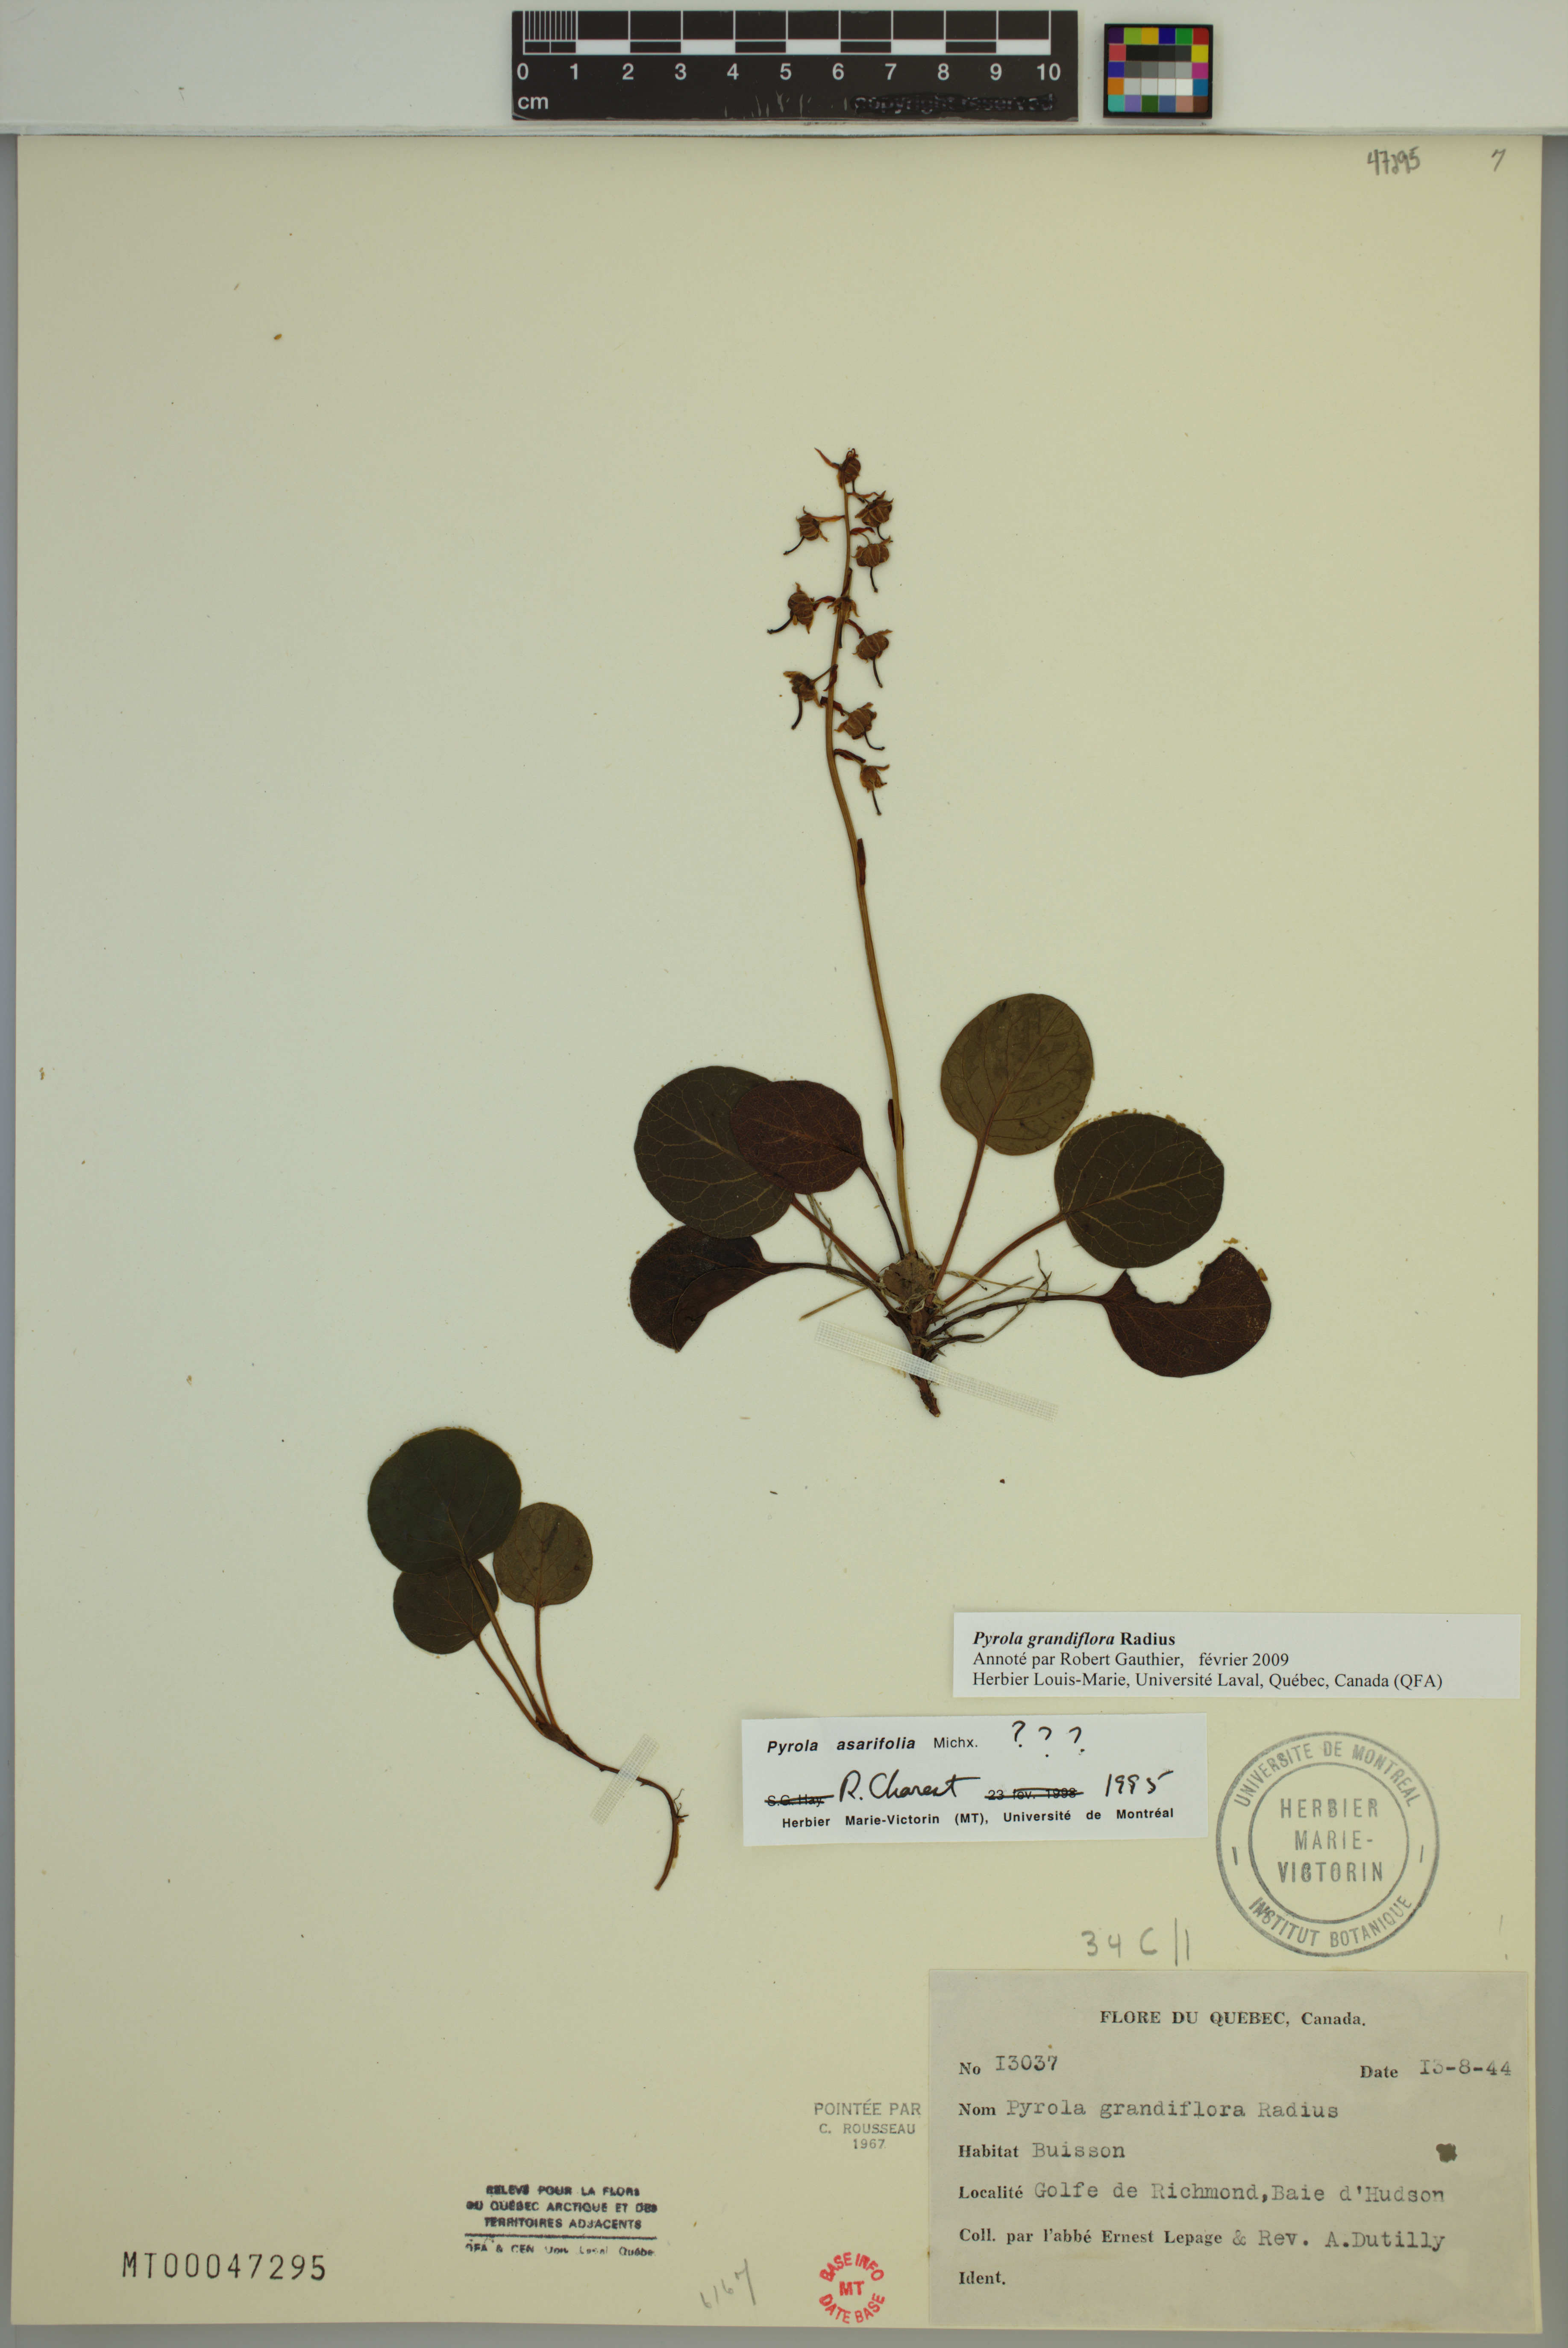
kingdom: Plantae
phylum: Tracheophyta
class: Magnoliopsida
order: Ericales
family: Ericaceae
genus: Pyrola
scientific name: Pyrola grandiflora
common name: Arctic pyrola
